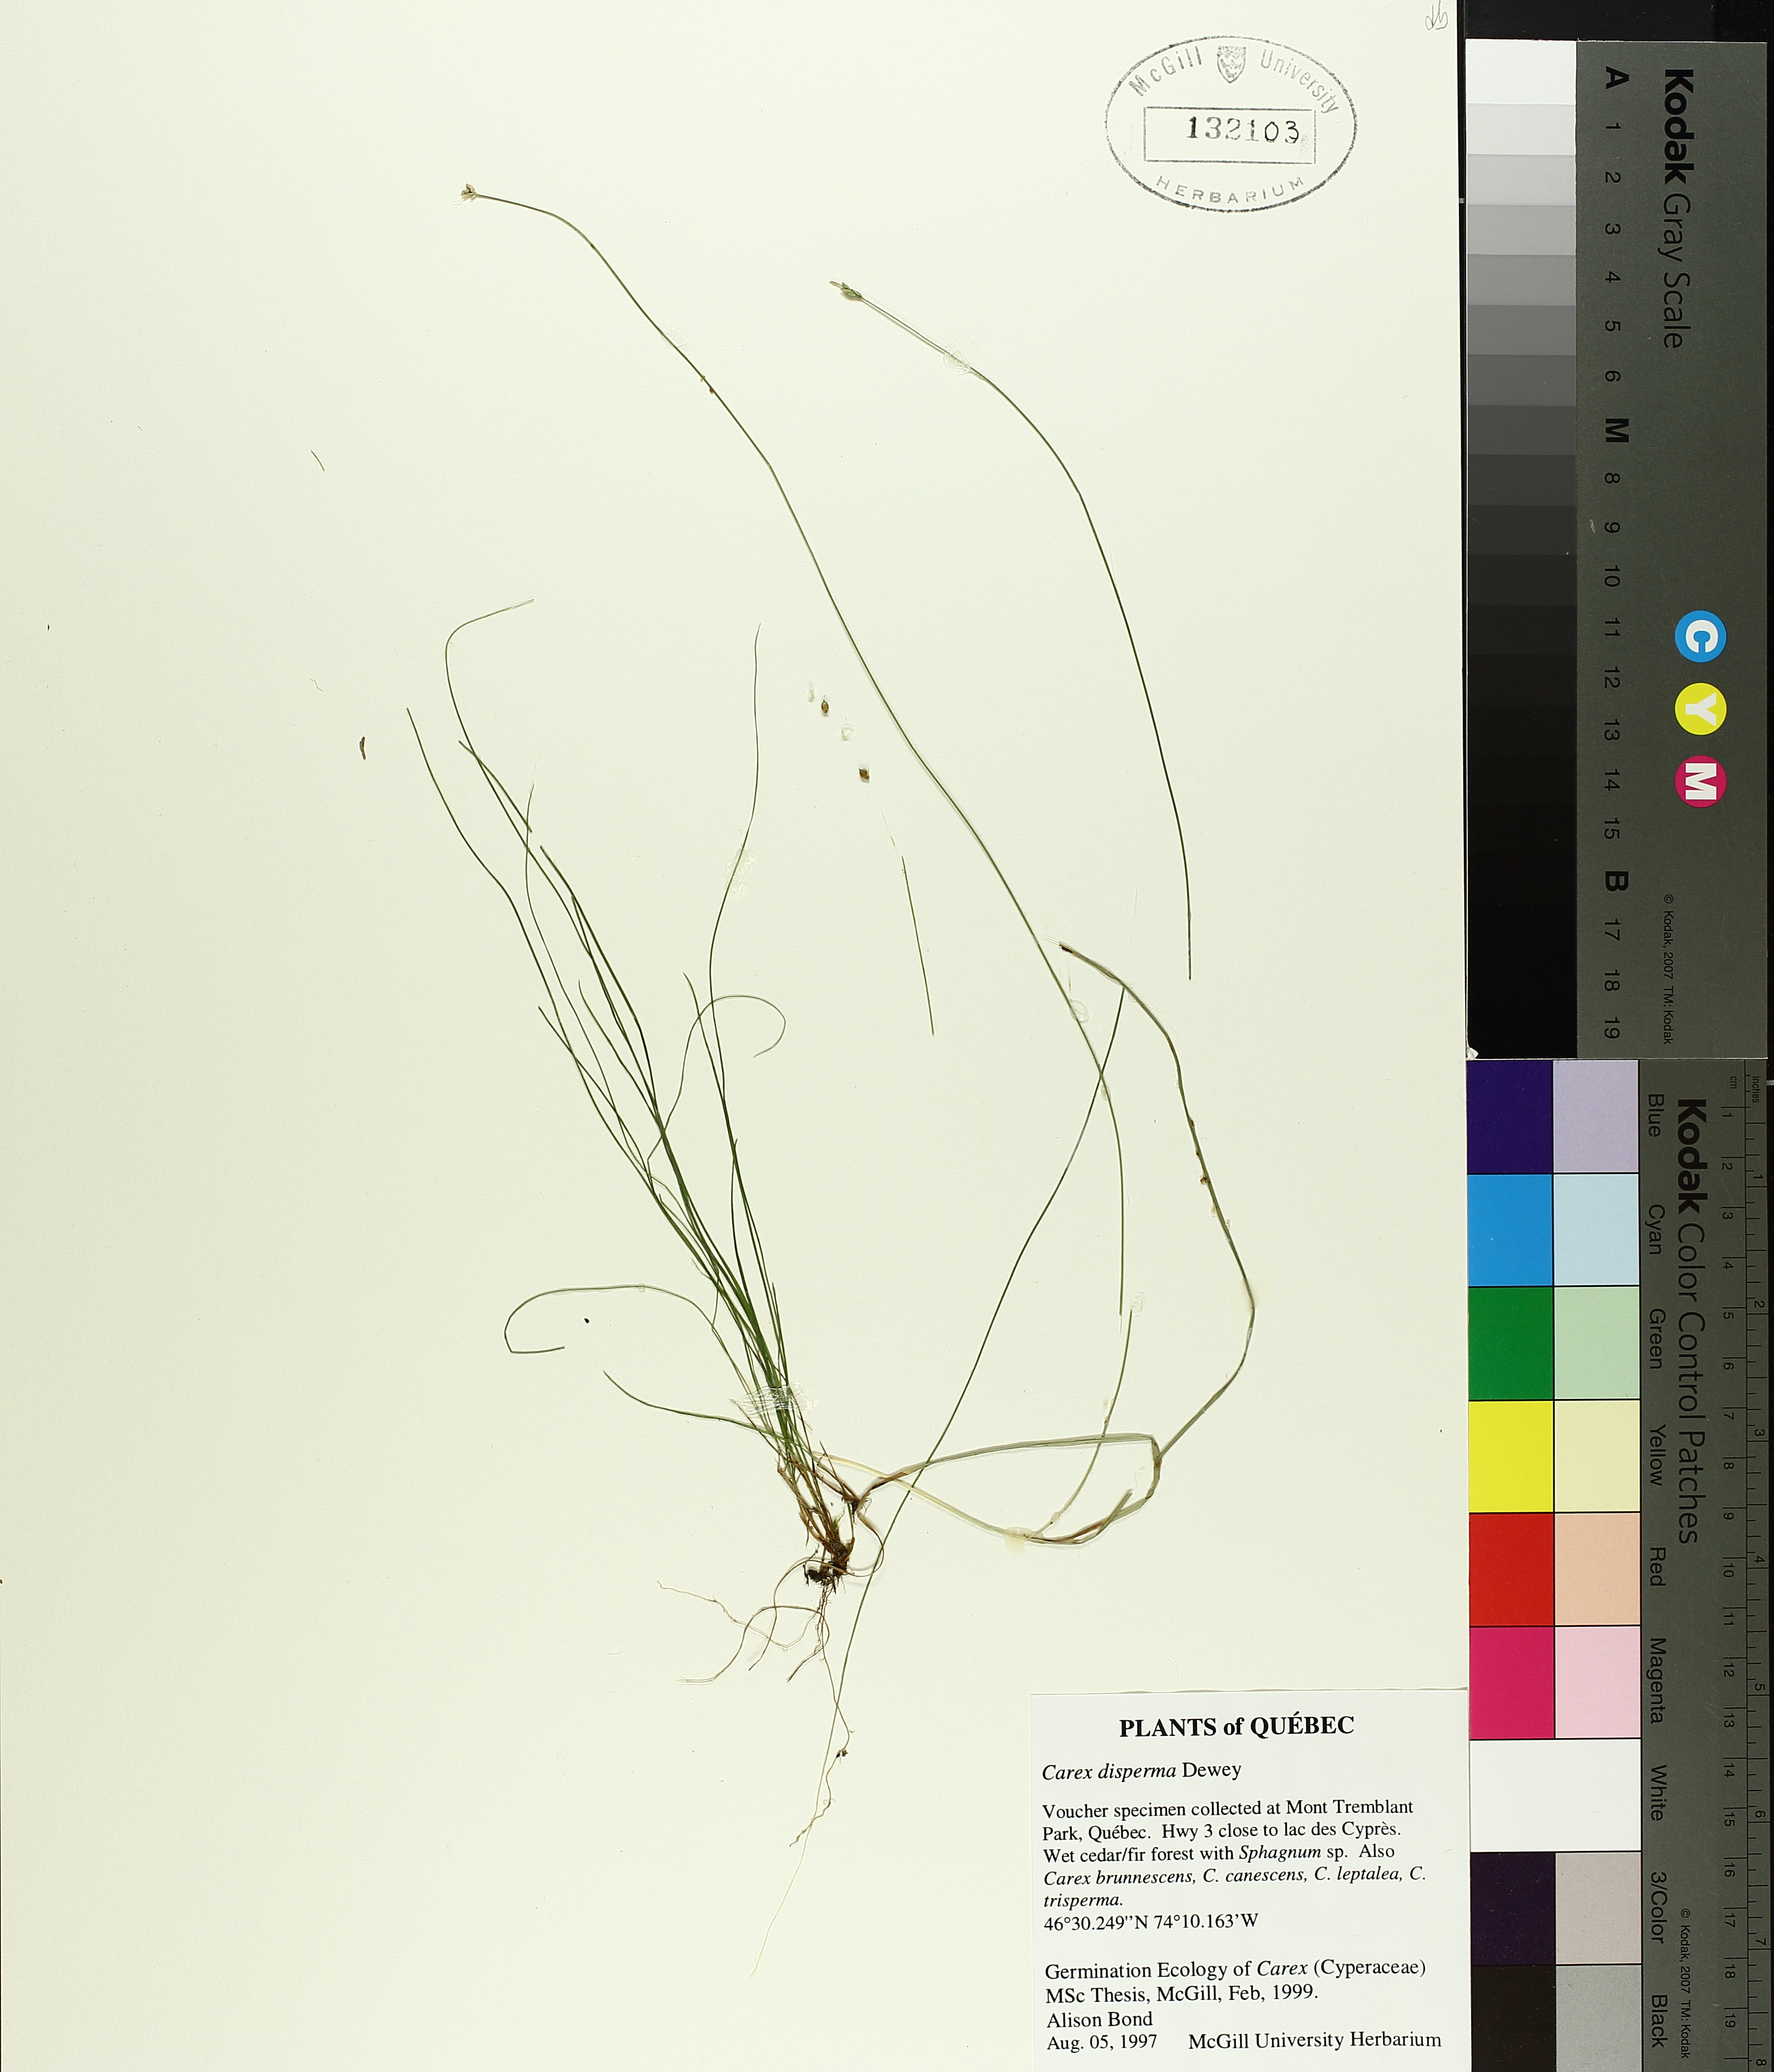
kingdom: Plantae
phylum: Tracheophyta
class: Liliopsida
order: Poales
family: Cyperaceae
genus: Carex
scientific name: Carex disperma
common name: Short-leaved sedge
